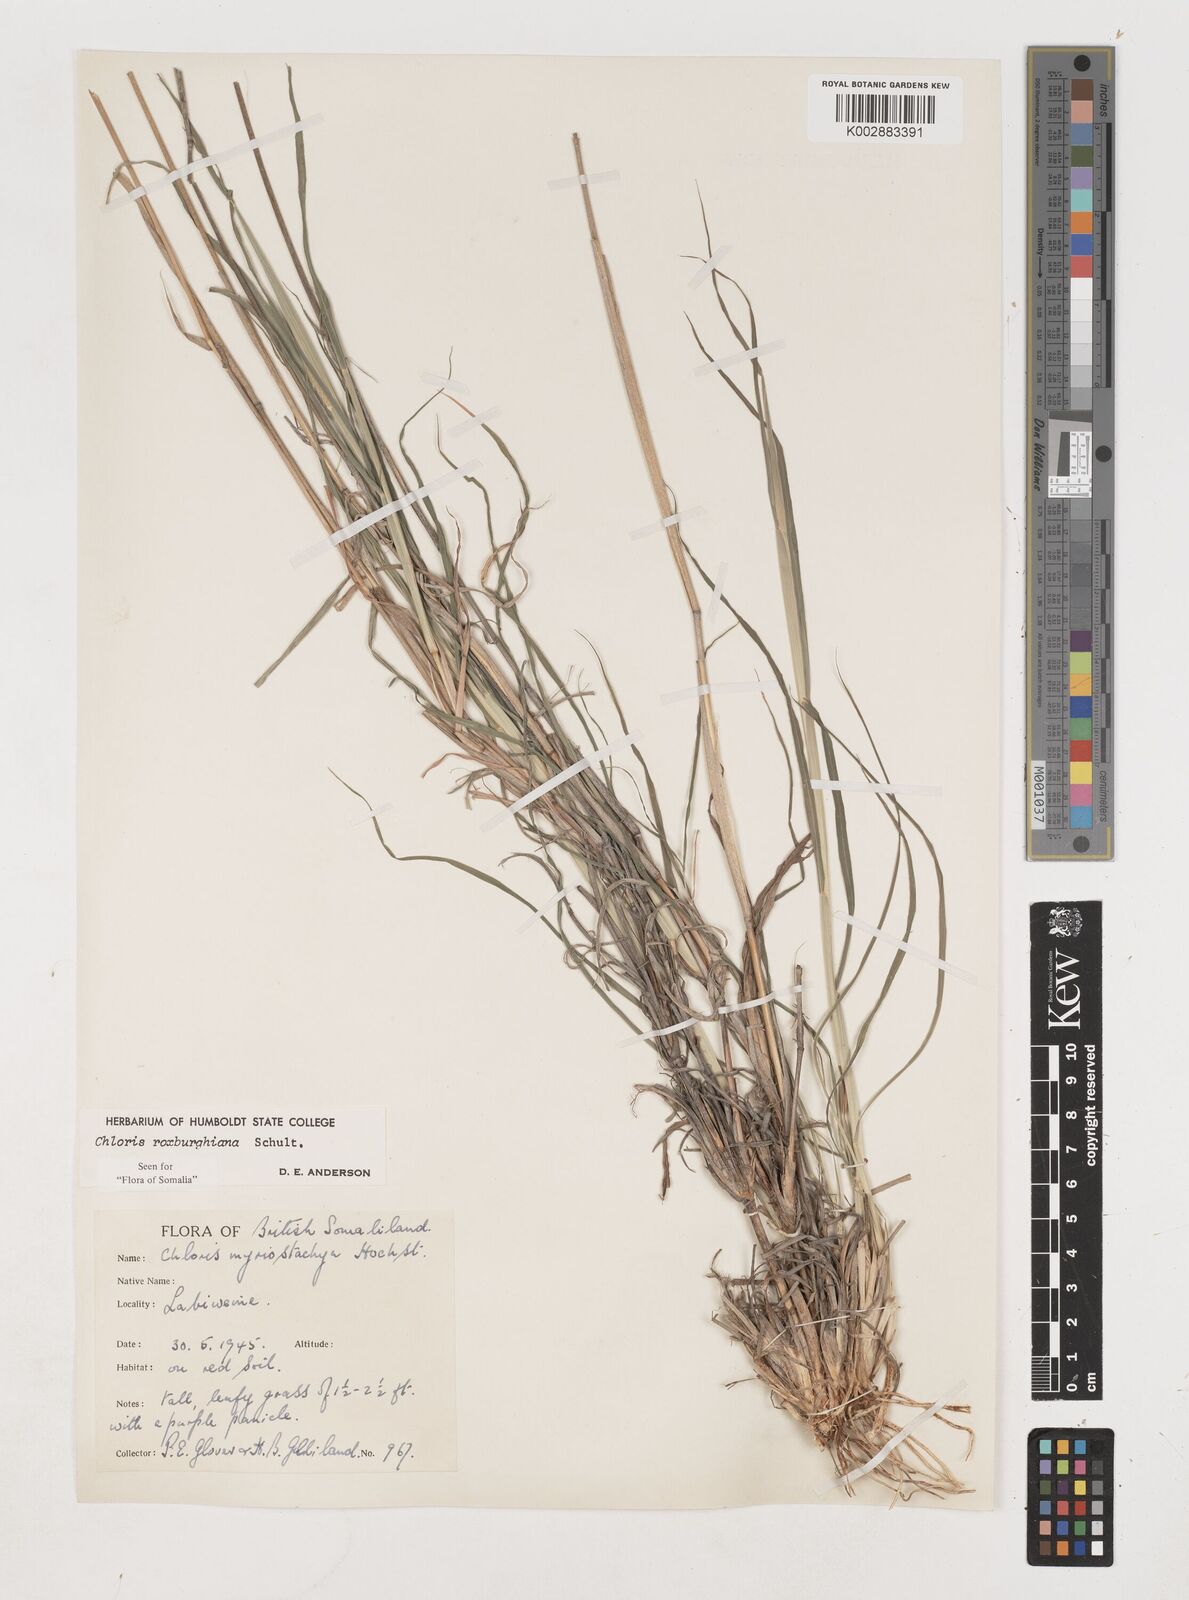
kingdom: Plantae
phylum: Tracheophyta
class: Liliopsida
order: Poales
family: Poaceae
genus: Tetrapogon
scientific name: Tetrapogon roxburghiana
